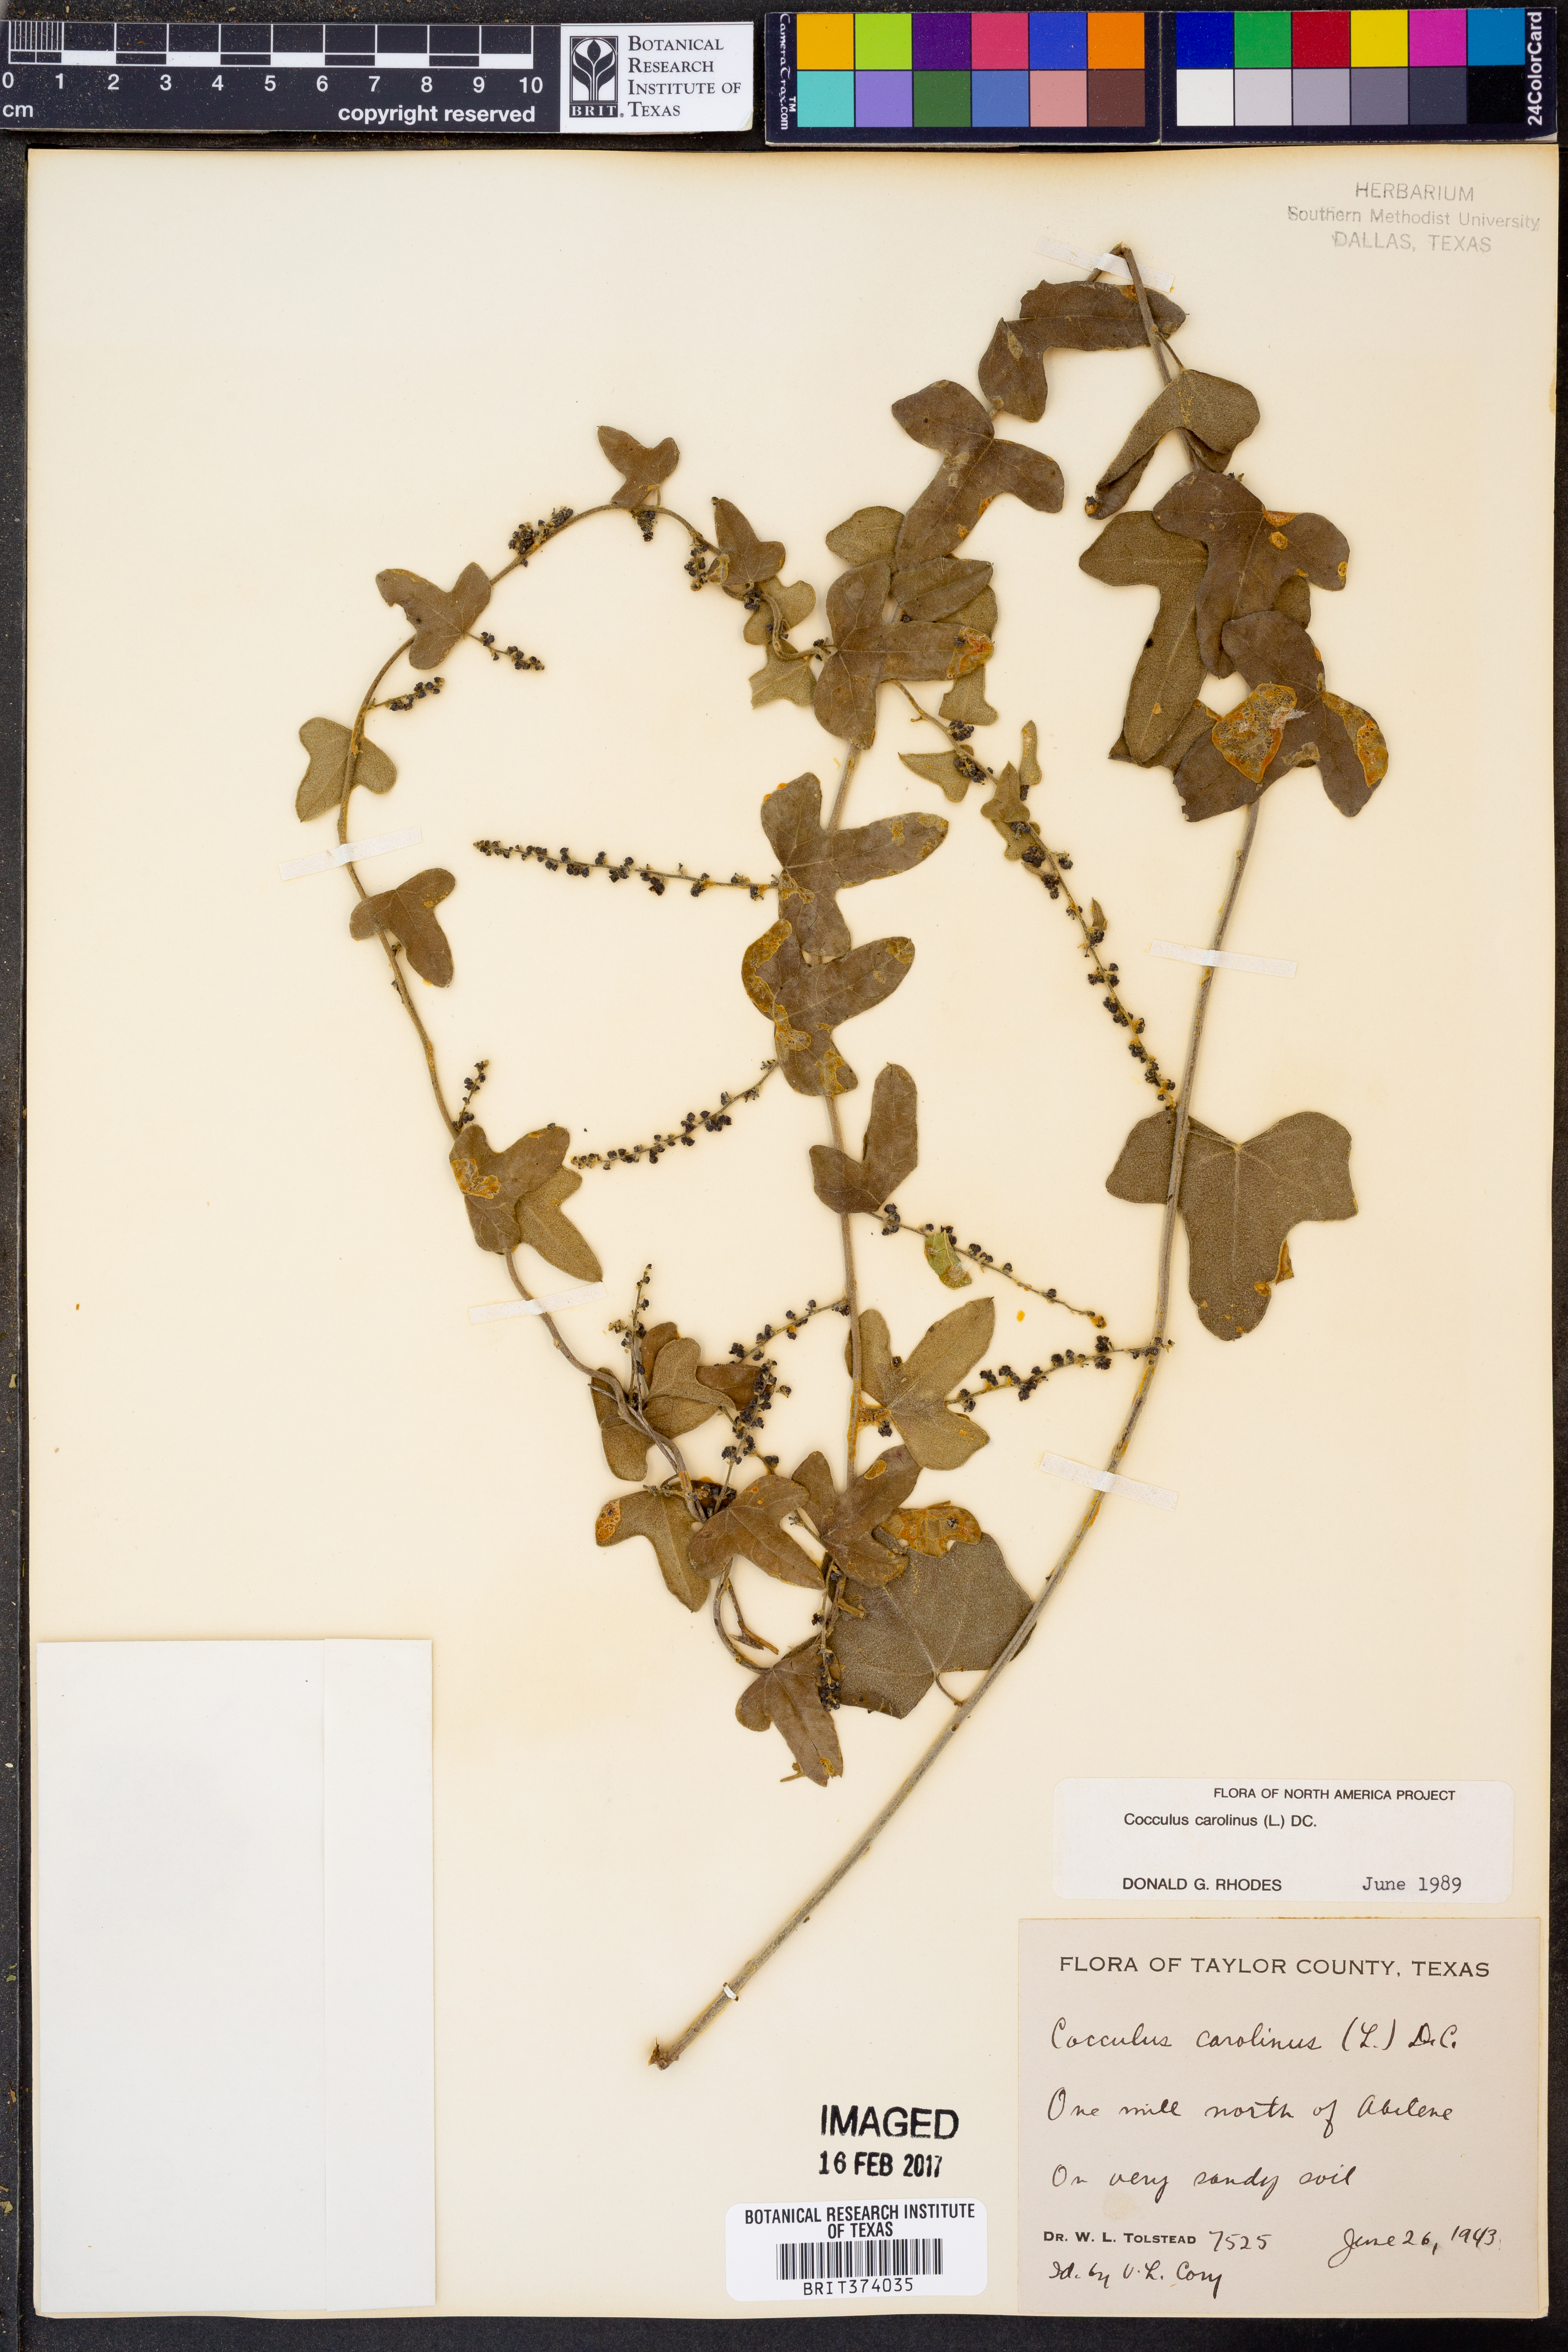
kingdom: Plantae
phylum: Tracheophyta
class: Magnoliopsida
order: Ranunculales
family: Menispermaceae
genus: Cocculus
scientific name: Cocculus carolinus
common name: Carolina moonseed
